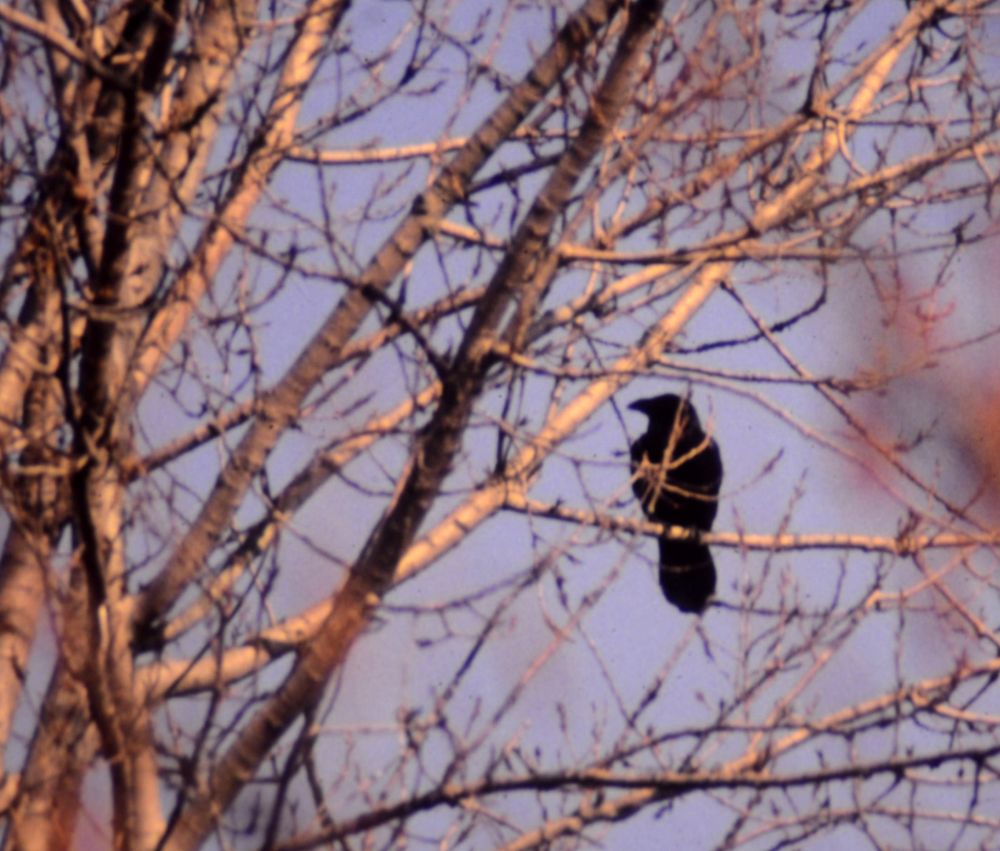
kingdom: Animalia
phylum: Chordata
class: Aves
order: Passeriformes
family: Corvidae
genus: Corvus
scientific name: Corvus corax
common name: Common raven
